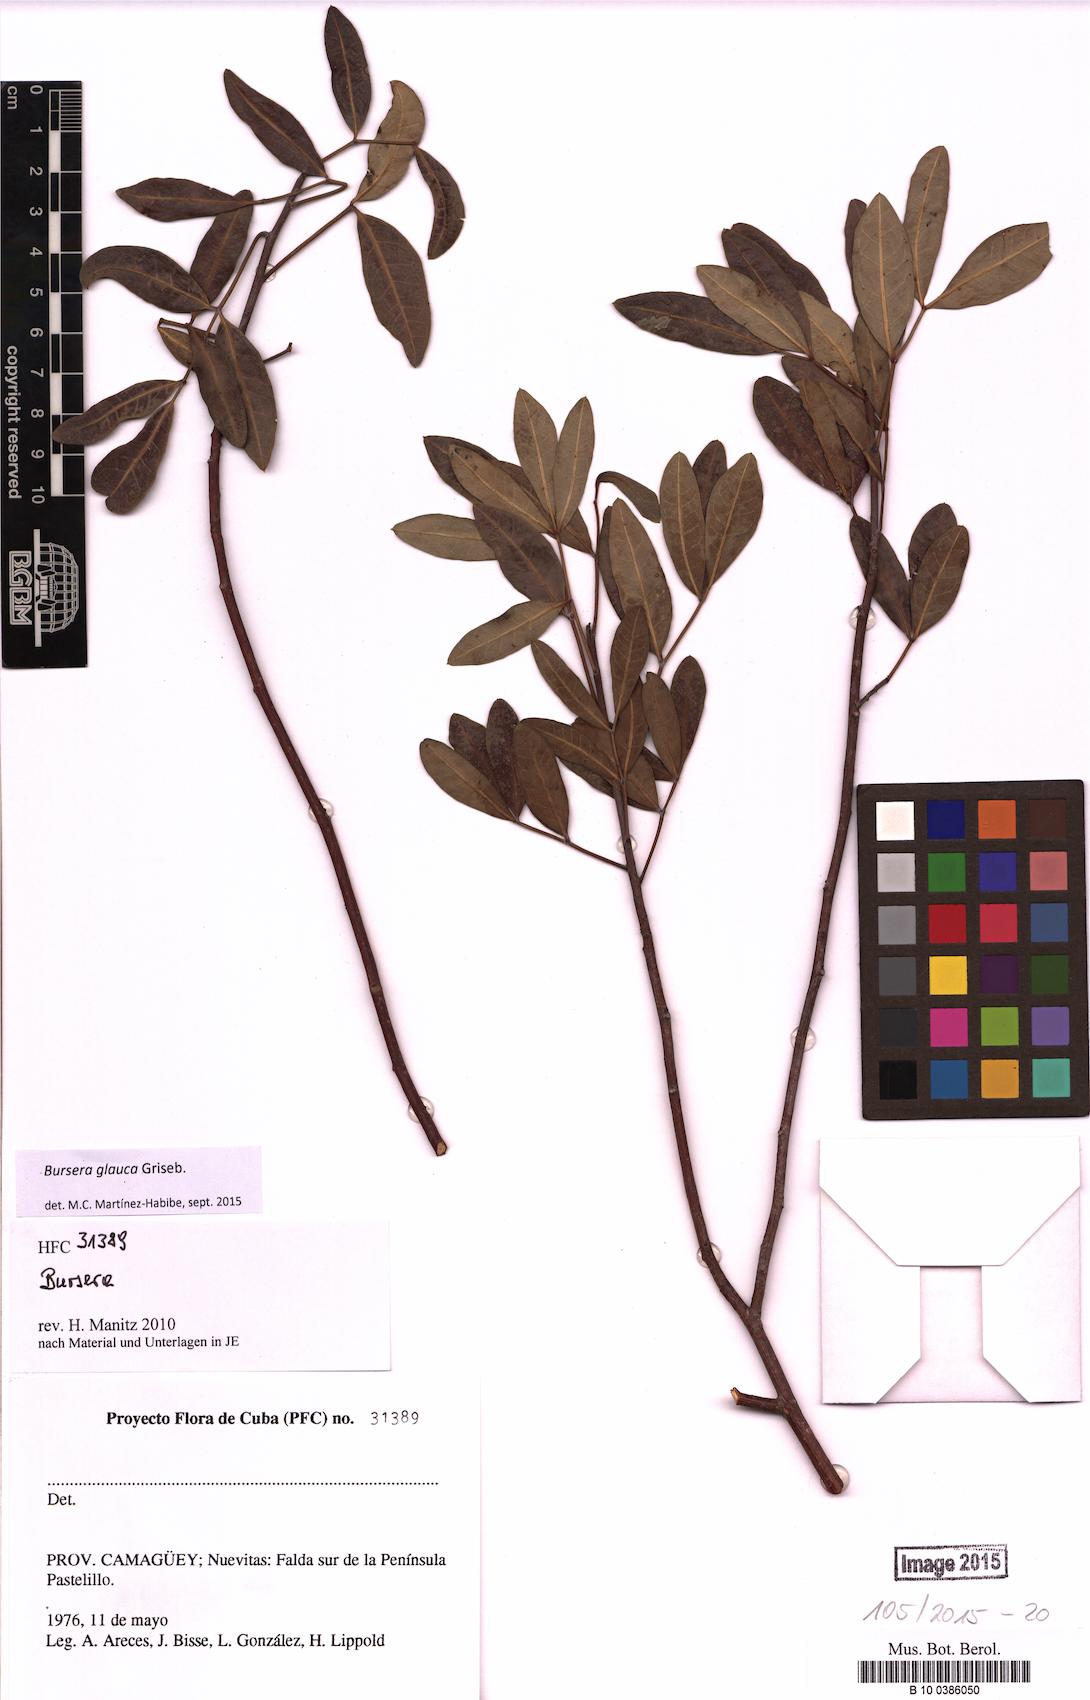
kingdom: Plantae
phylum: Tracheophyta
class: Magnoliopsida
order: Sapindales
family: Burseraceae
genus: Bursera
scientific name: Bursera glauca
